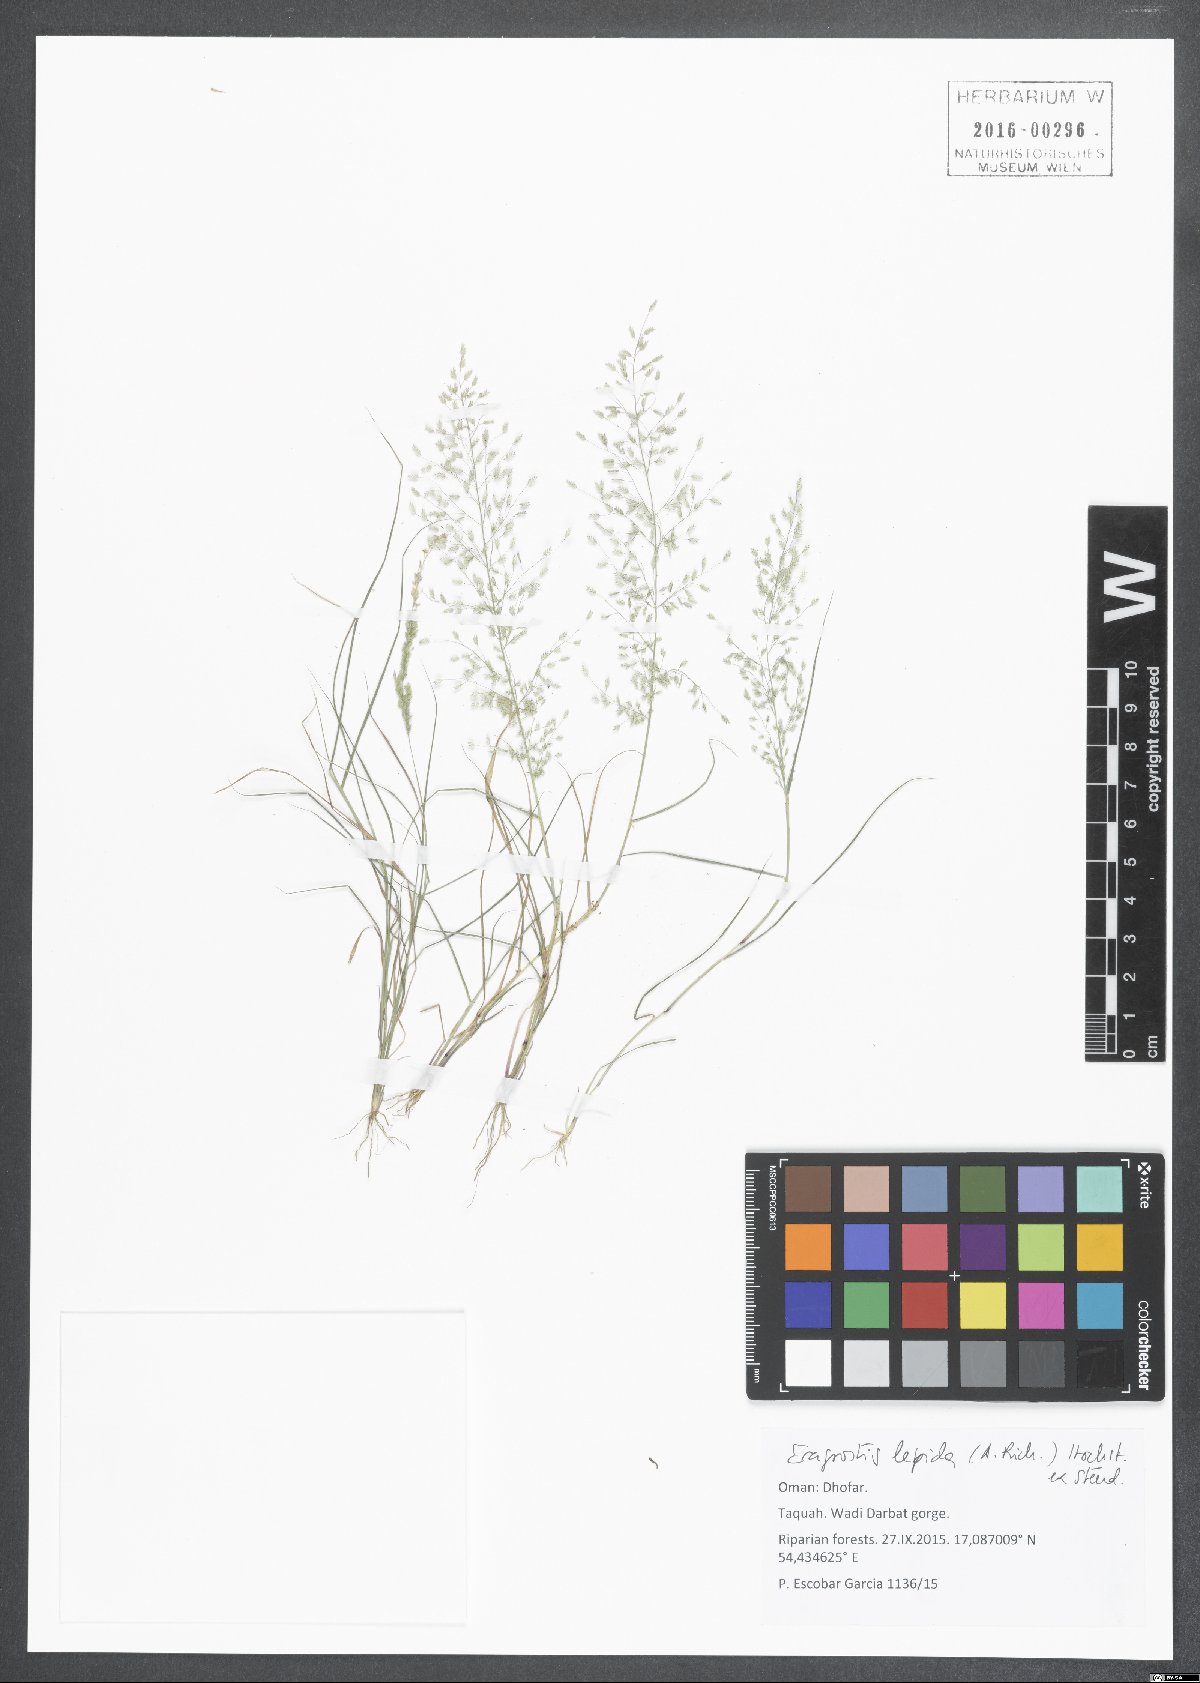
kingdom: Plantae
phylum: Tracheophyta
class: Liliopsida
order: Poales
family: Poaceae
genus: Eragrostis
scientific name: Eragrostis lepida
